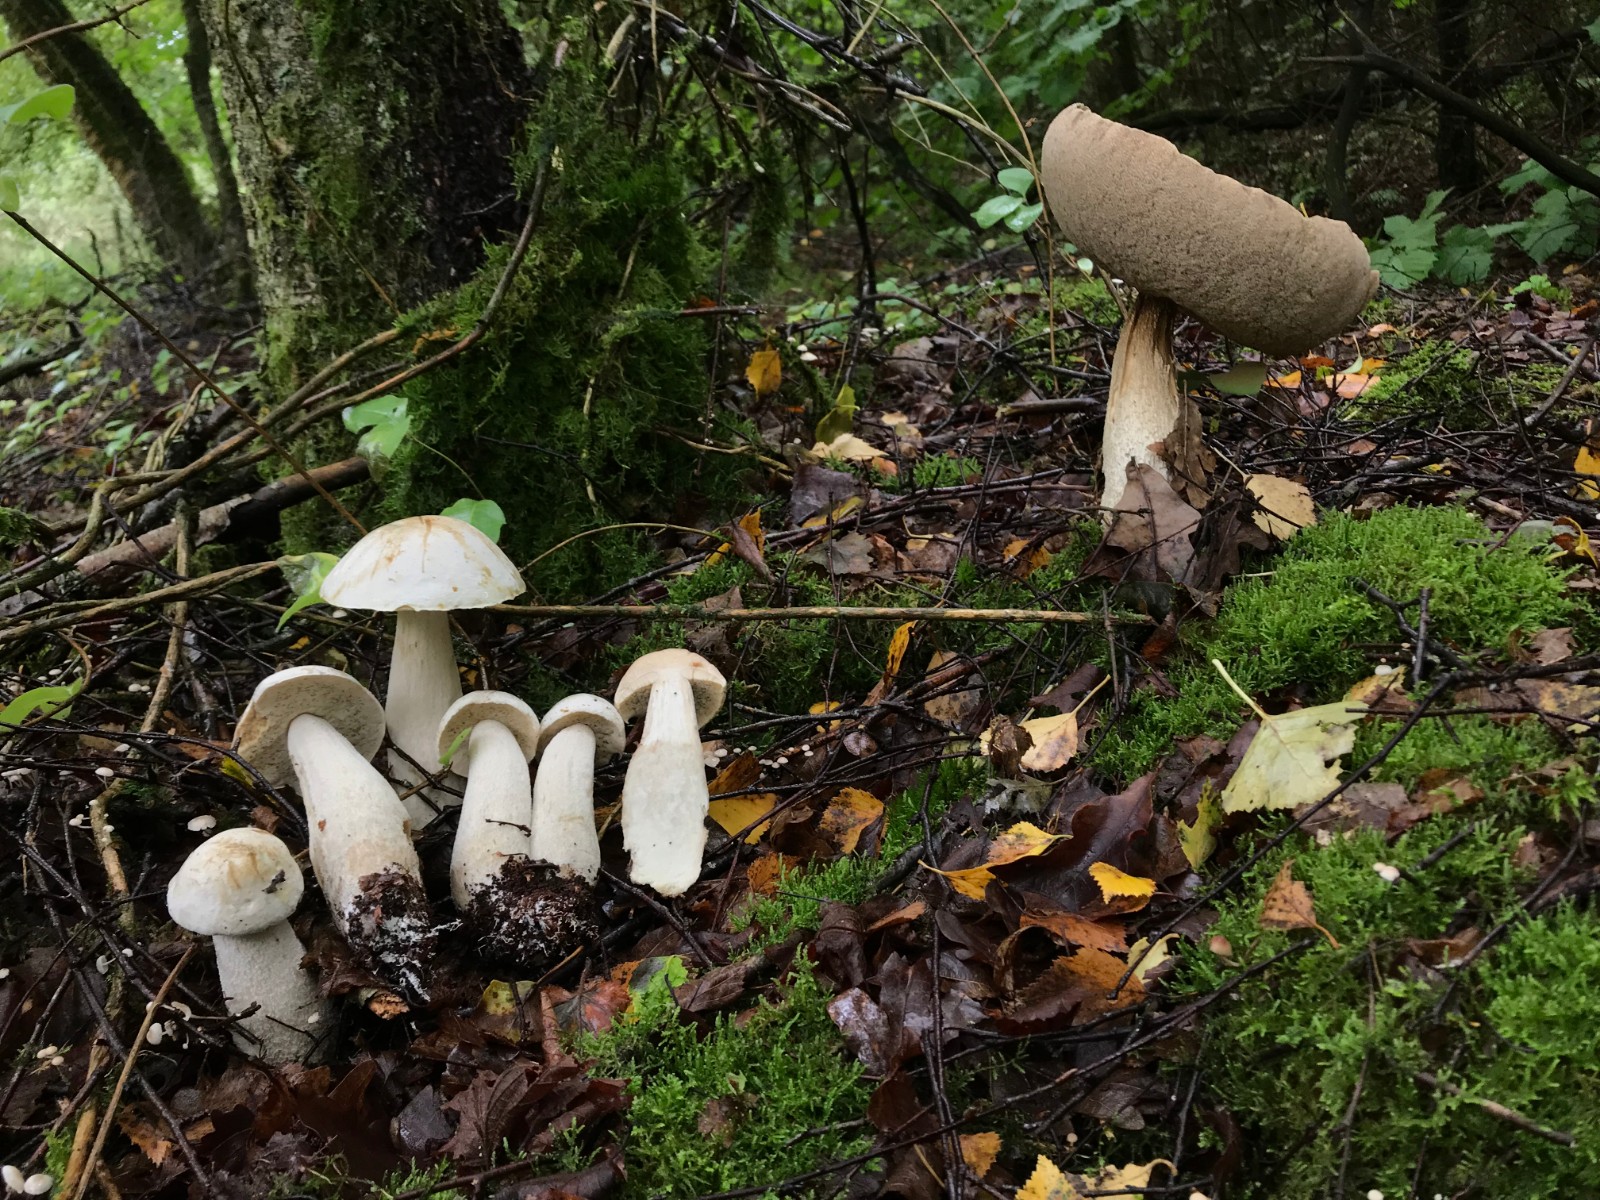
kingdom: Fungi
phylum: Basidiomycota
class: Agaricomycetes
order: Boletales
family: Boletaceae
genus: Leccinum
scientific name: Leccinum scabrum
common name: hvid skælrørhat
